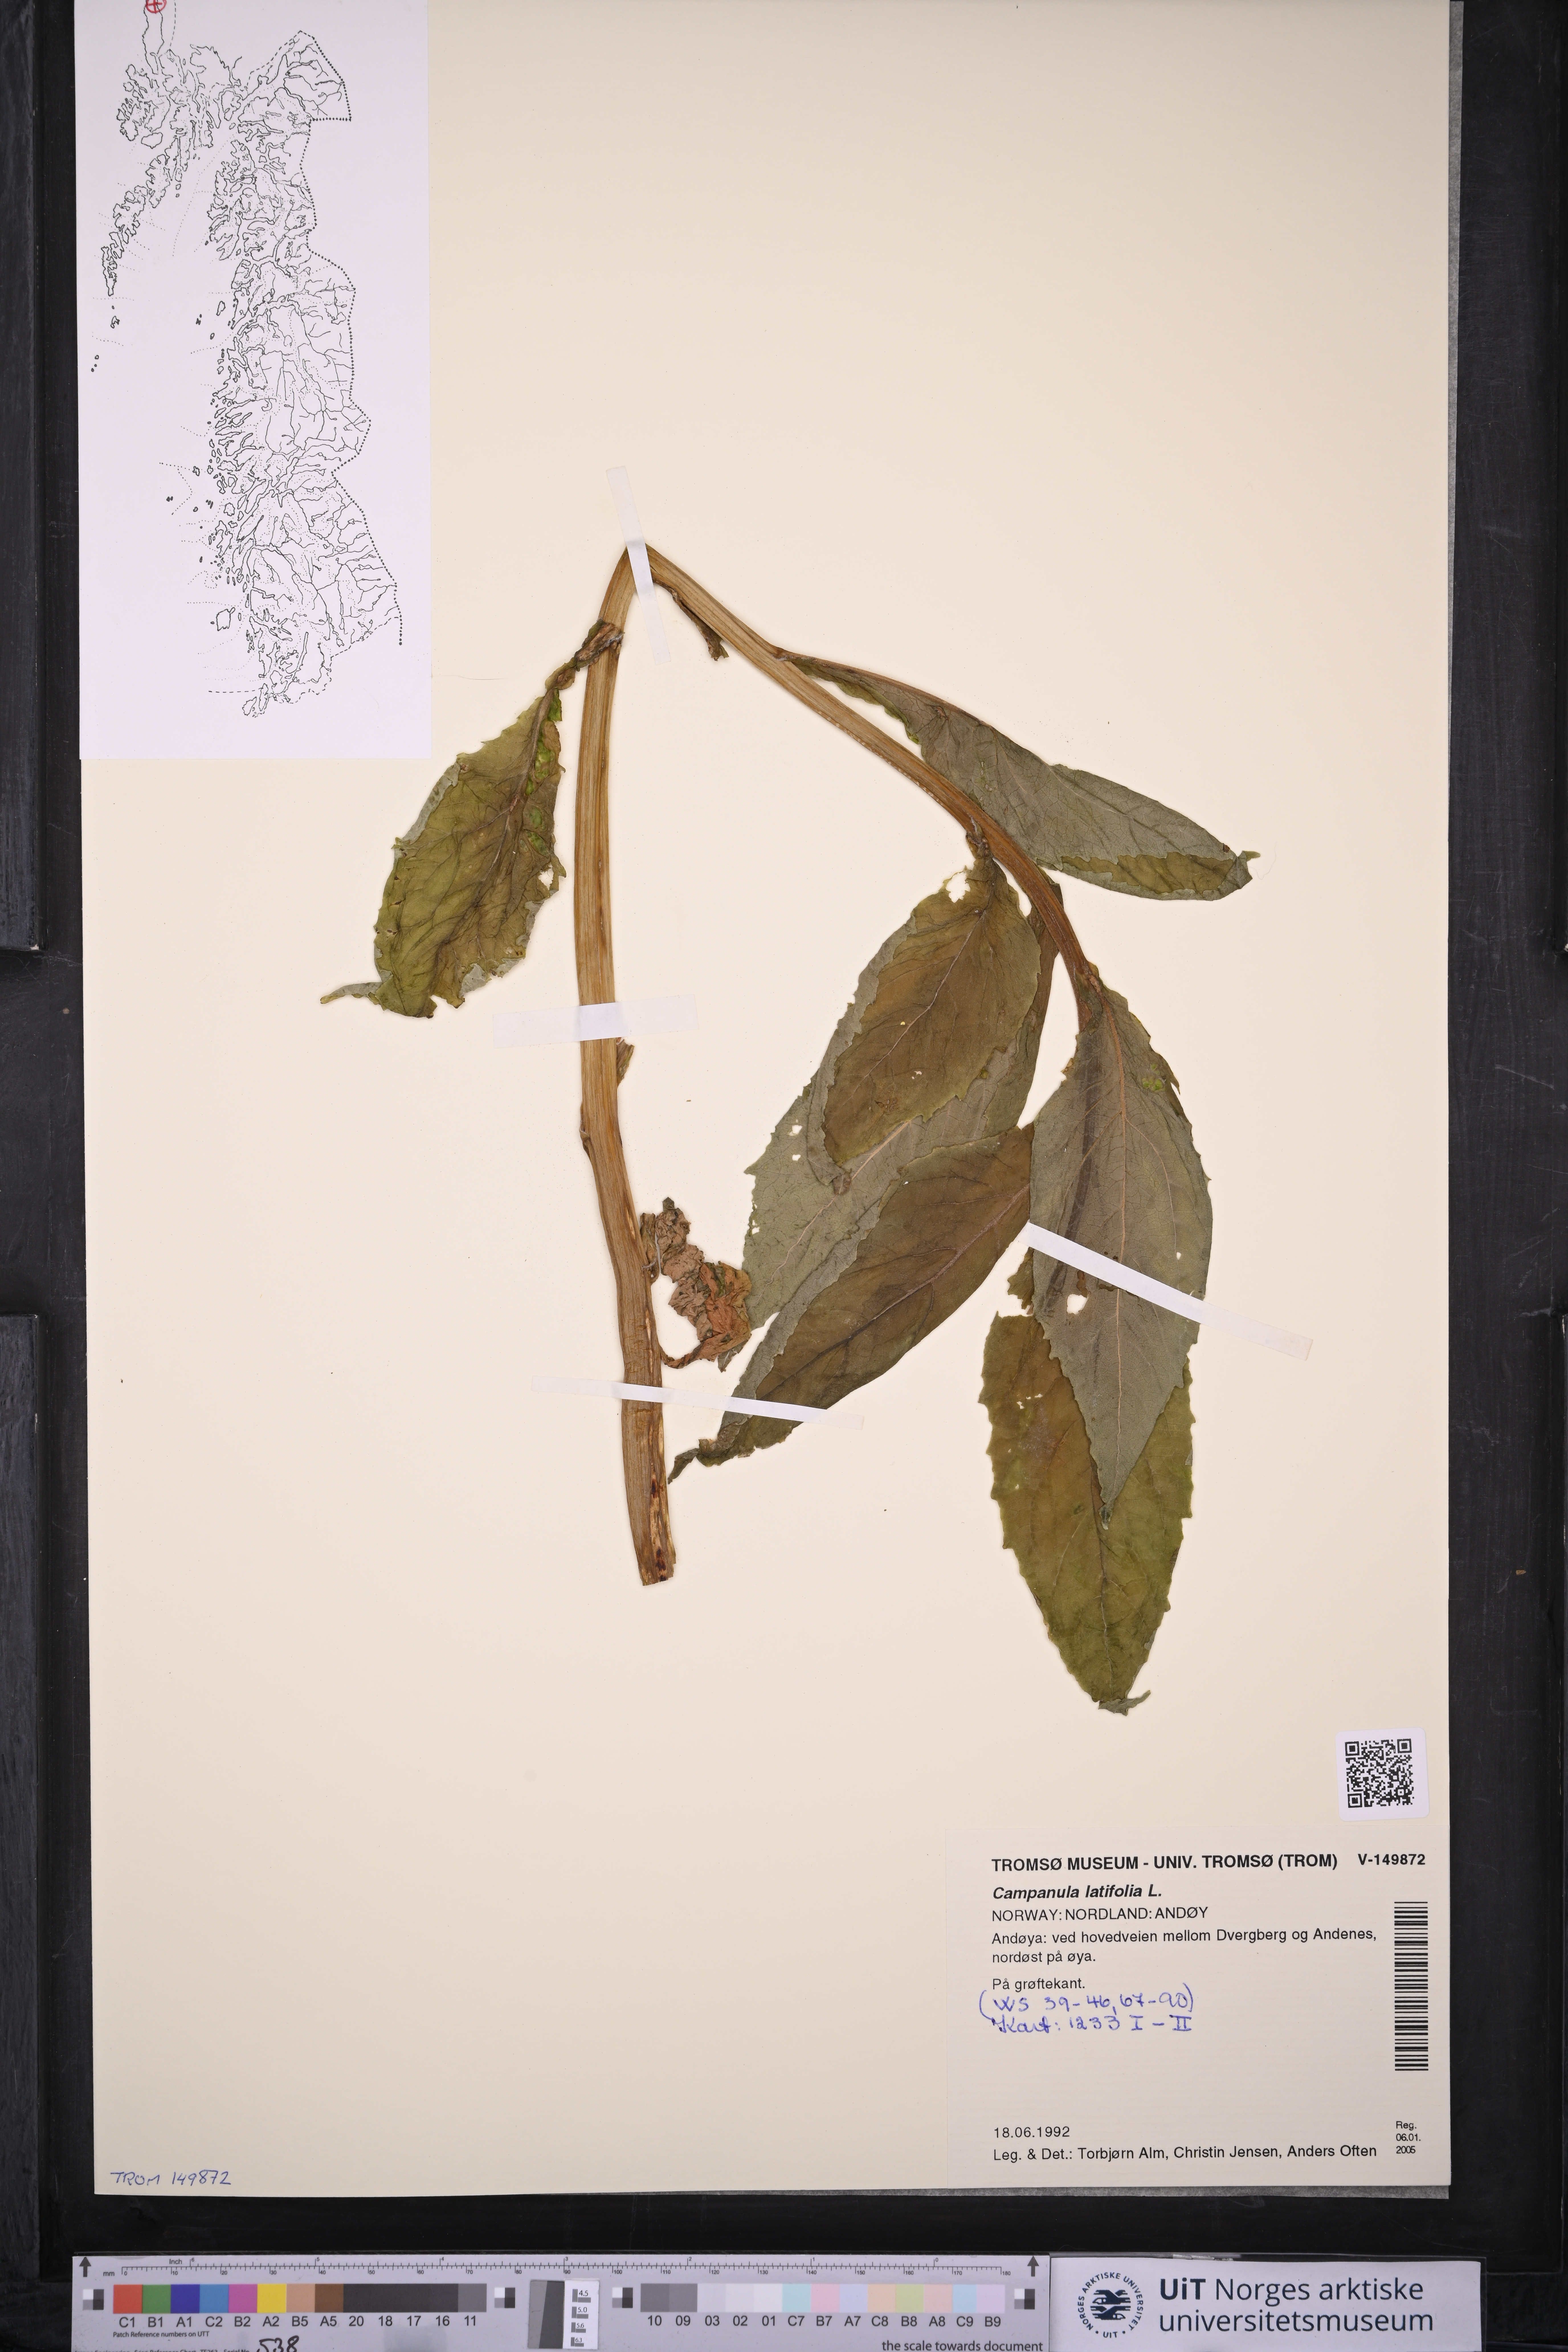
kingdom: Plantae
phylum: Tracheophyta
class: Magnoliopsida
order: Asterales
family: Campanulaceae
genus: Campanula
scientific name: Campanula latifolia
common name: Giant bellflower
